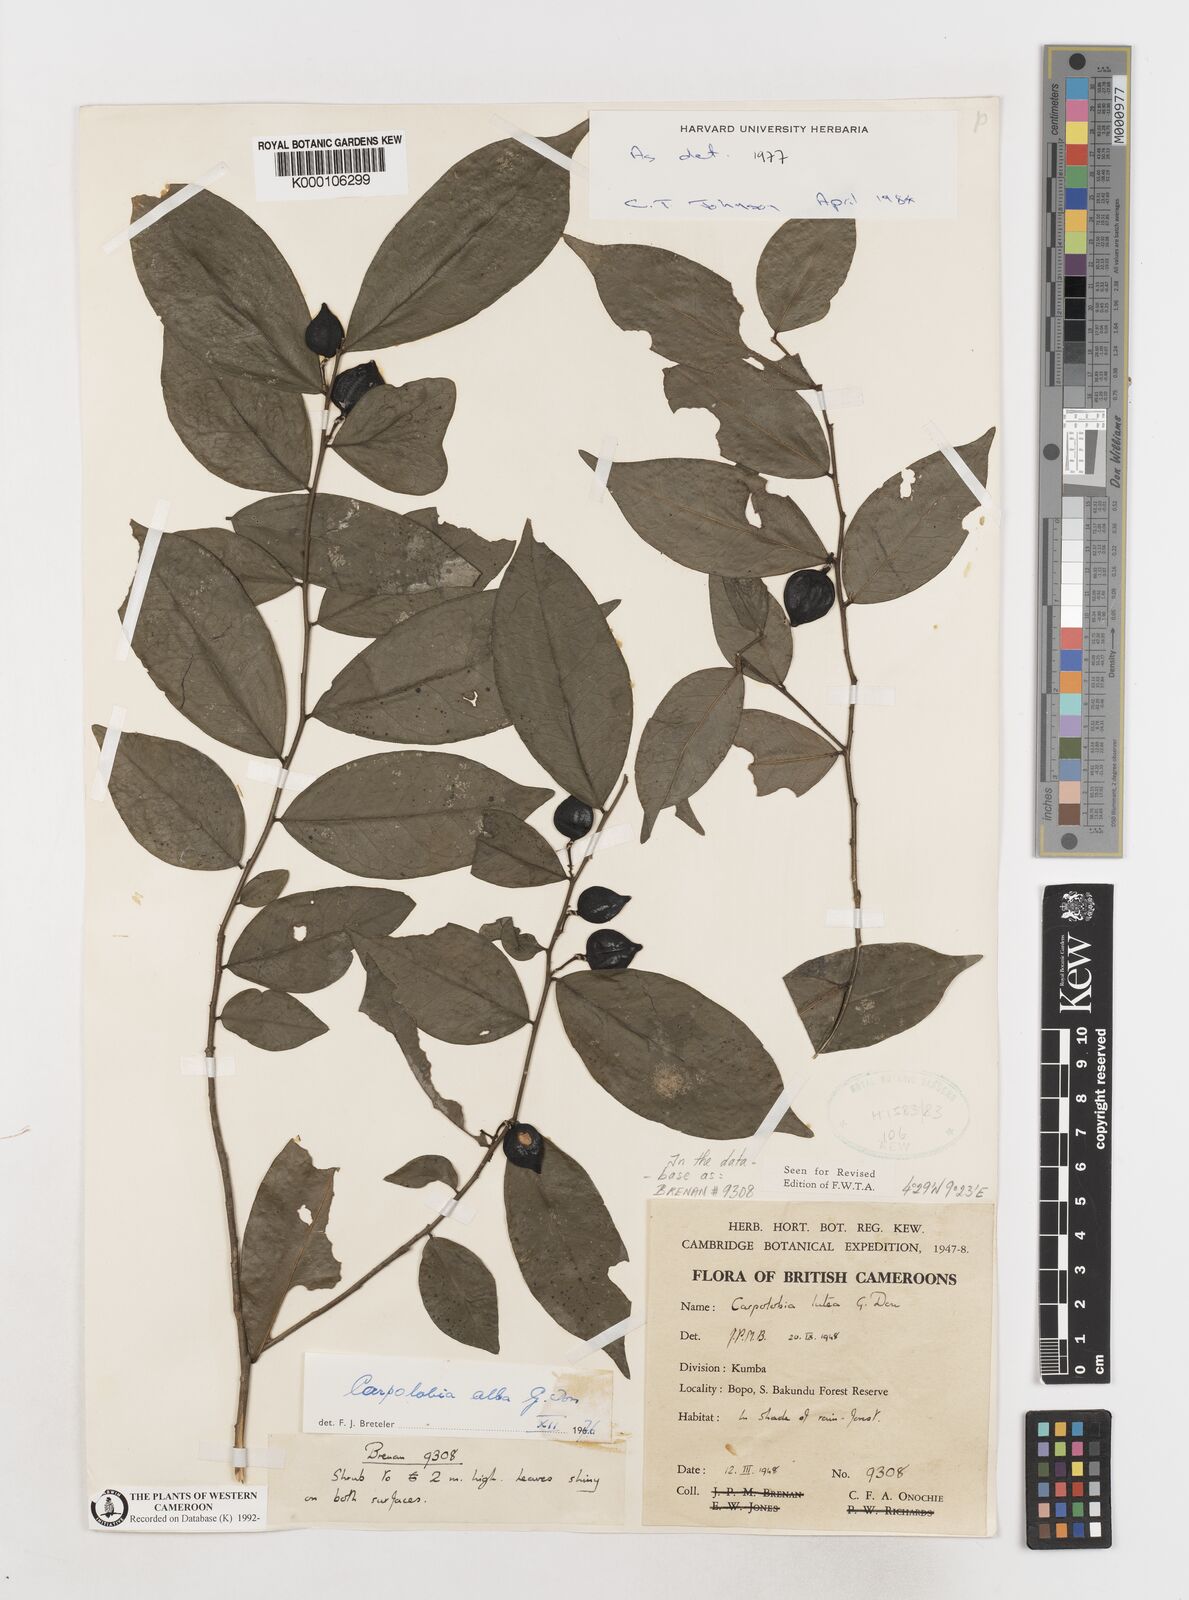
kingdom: Plantae
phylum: Tracheophyta
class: Magnoliopsida
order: Fabales
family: Polygalaceae
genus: Carpolobia
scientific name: Carpolobia alba
